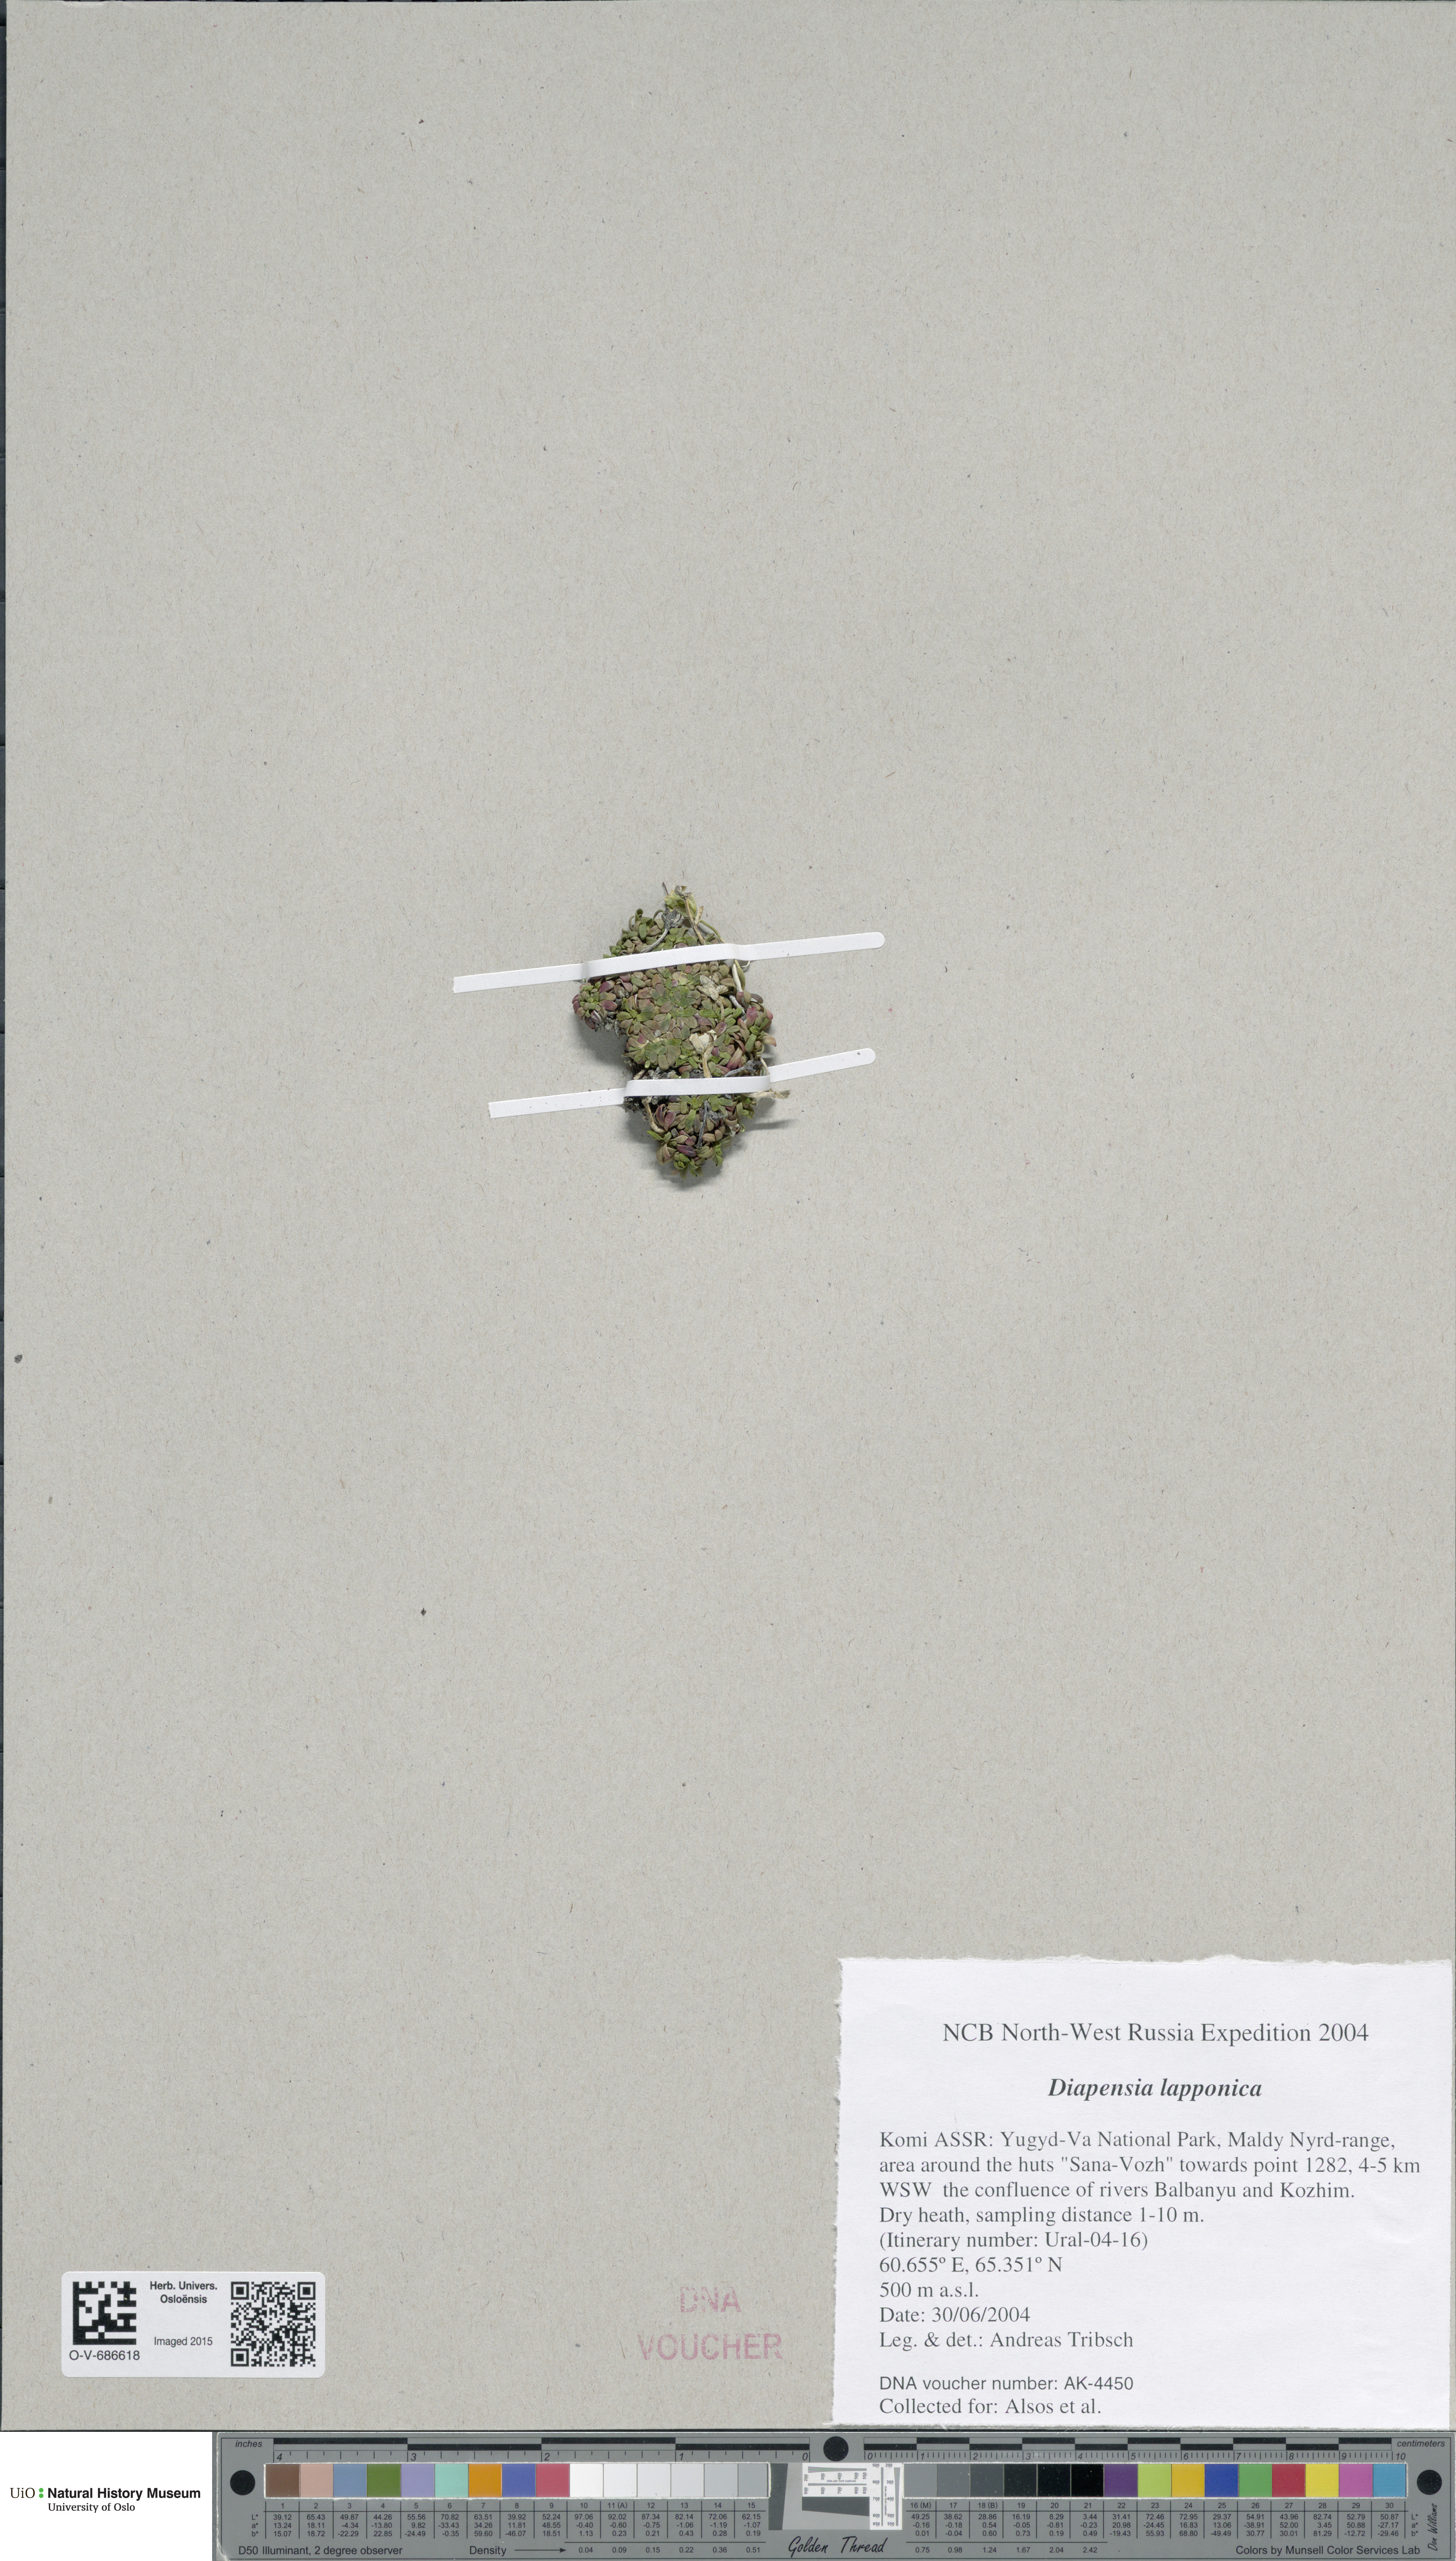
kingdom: Plantae
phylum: Tracheophyta
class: Magnoliopsida
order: Ericales
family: Diapensiaceae
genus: Diapensia
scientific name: Diapensia lapponica
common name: Diapensia
